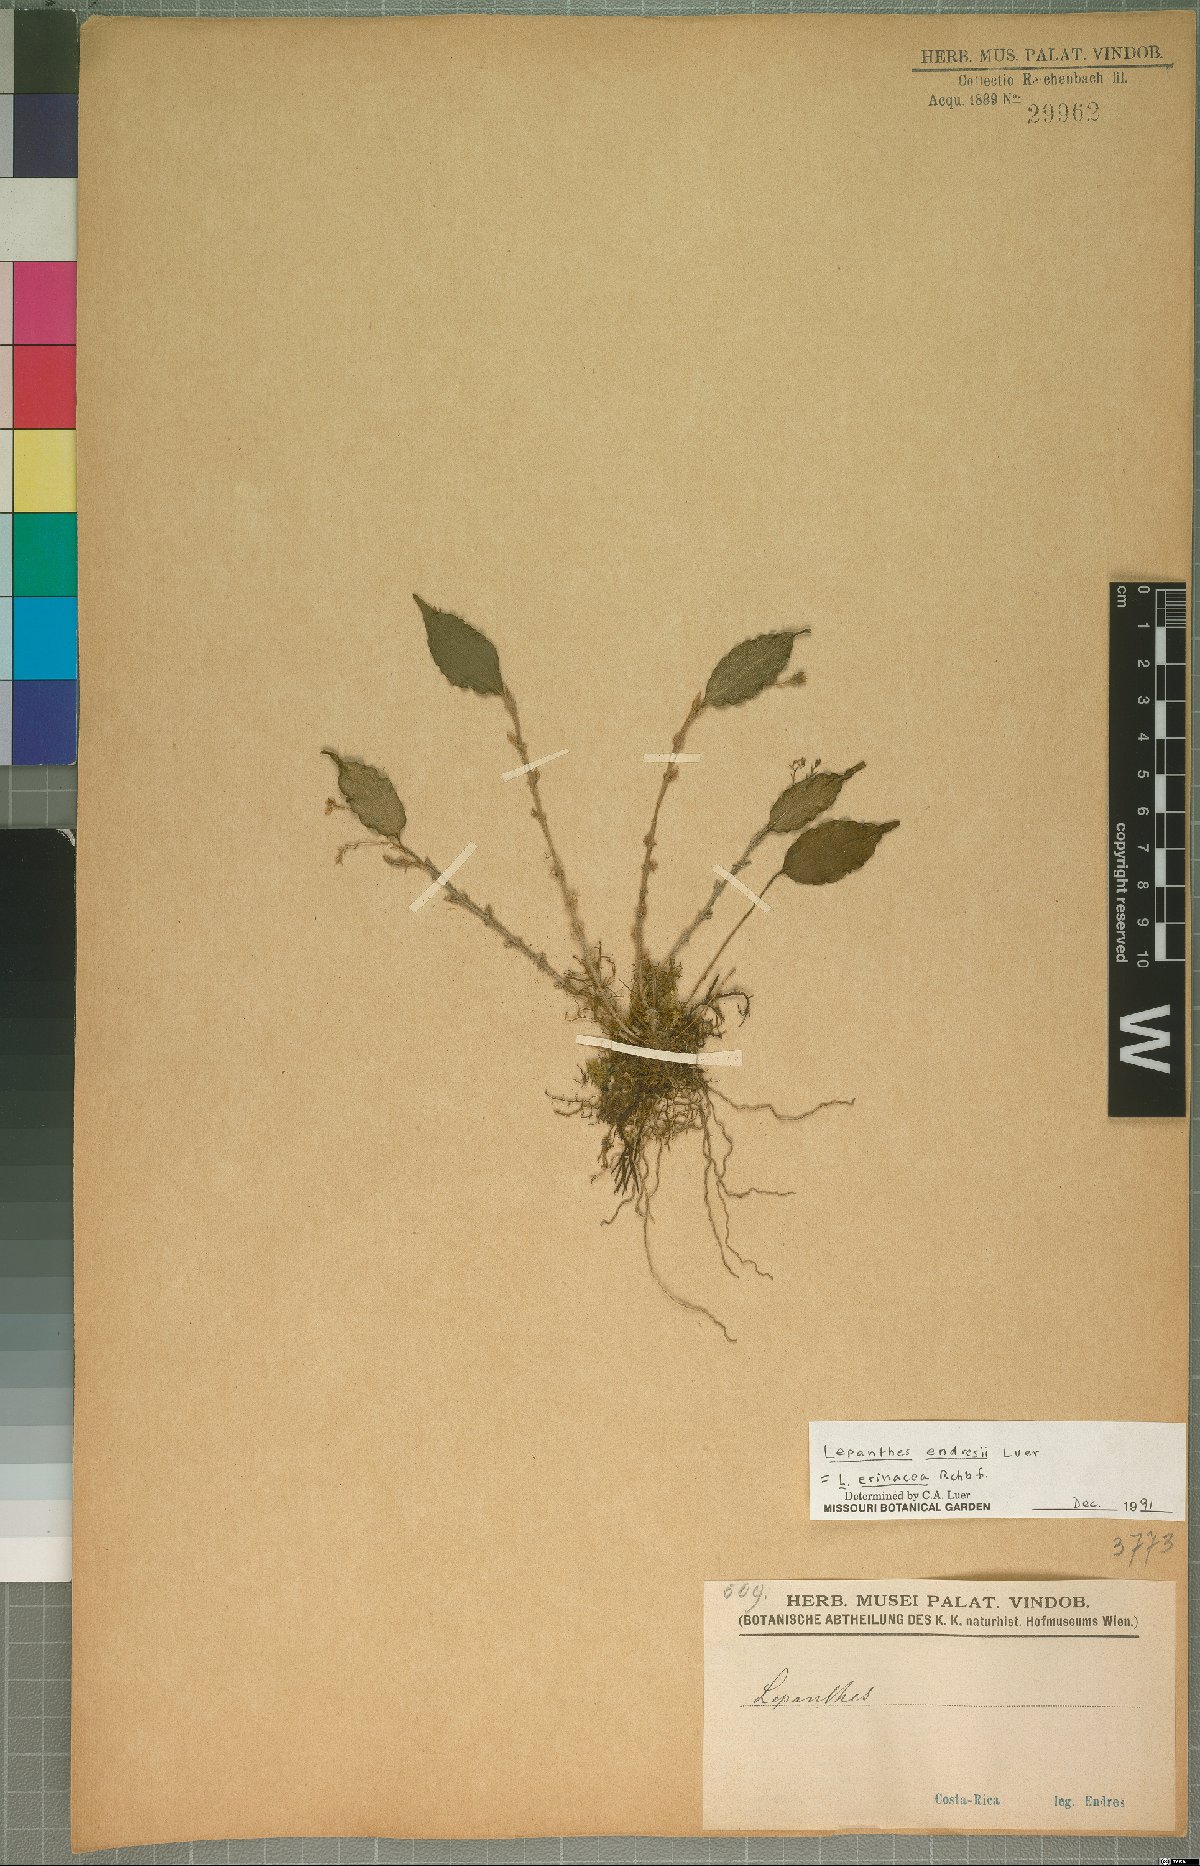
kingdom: Plantae
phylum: Tracheophyta
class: Liliopsida
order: Asparagales
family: Orchidaceae
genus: Lepanthes
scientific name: Lepanthes erinacea
